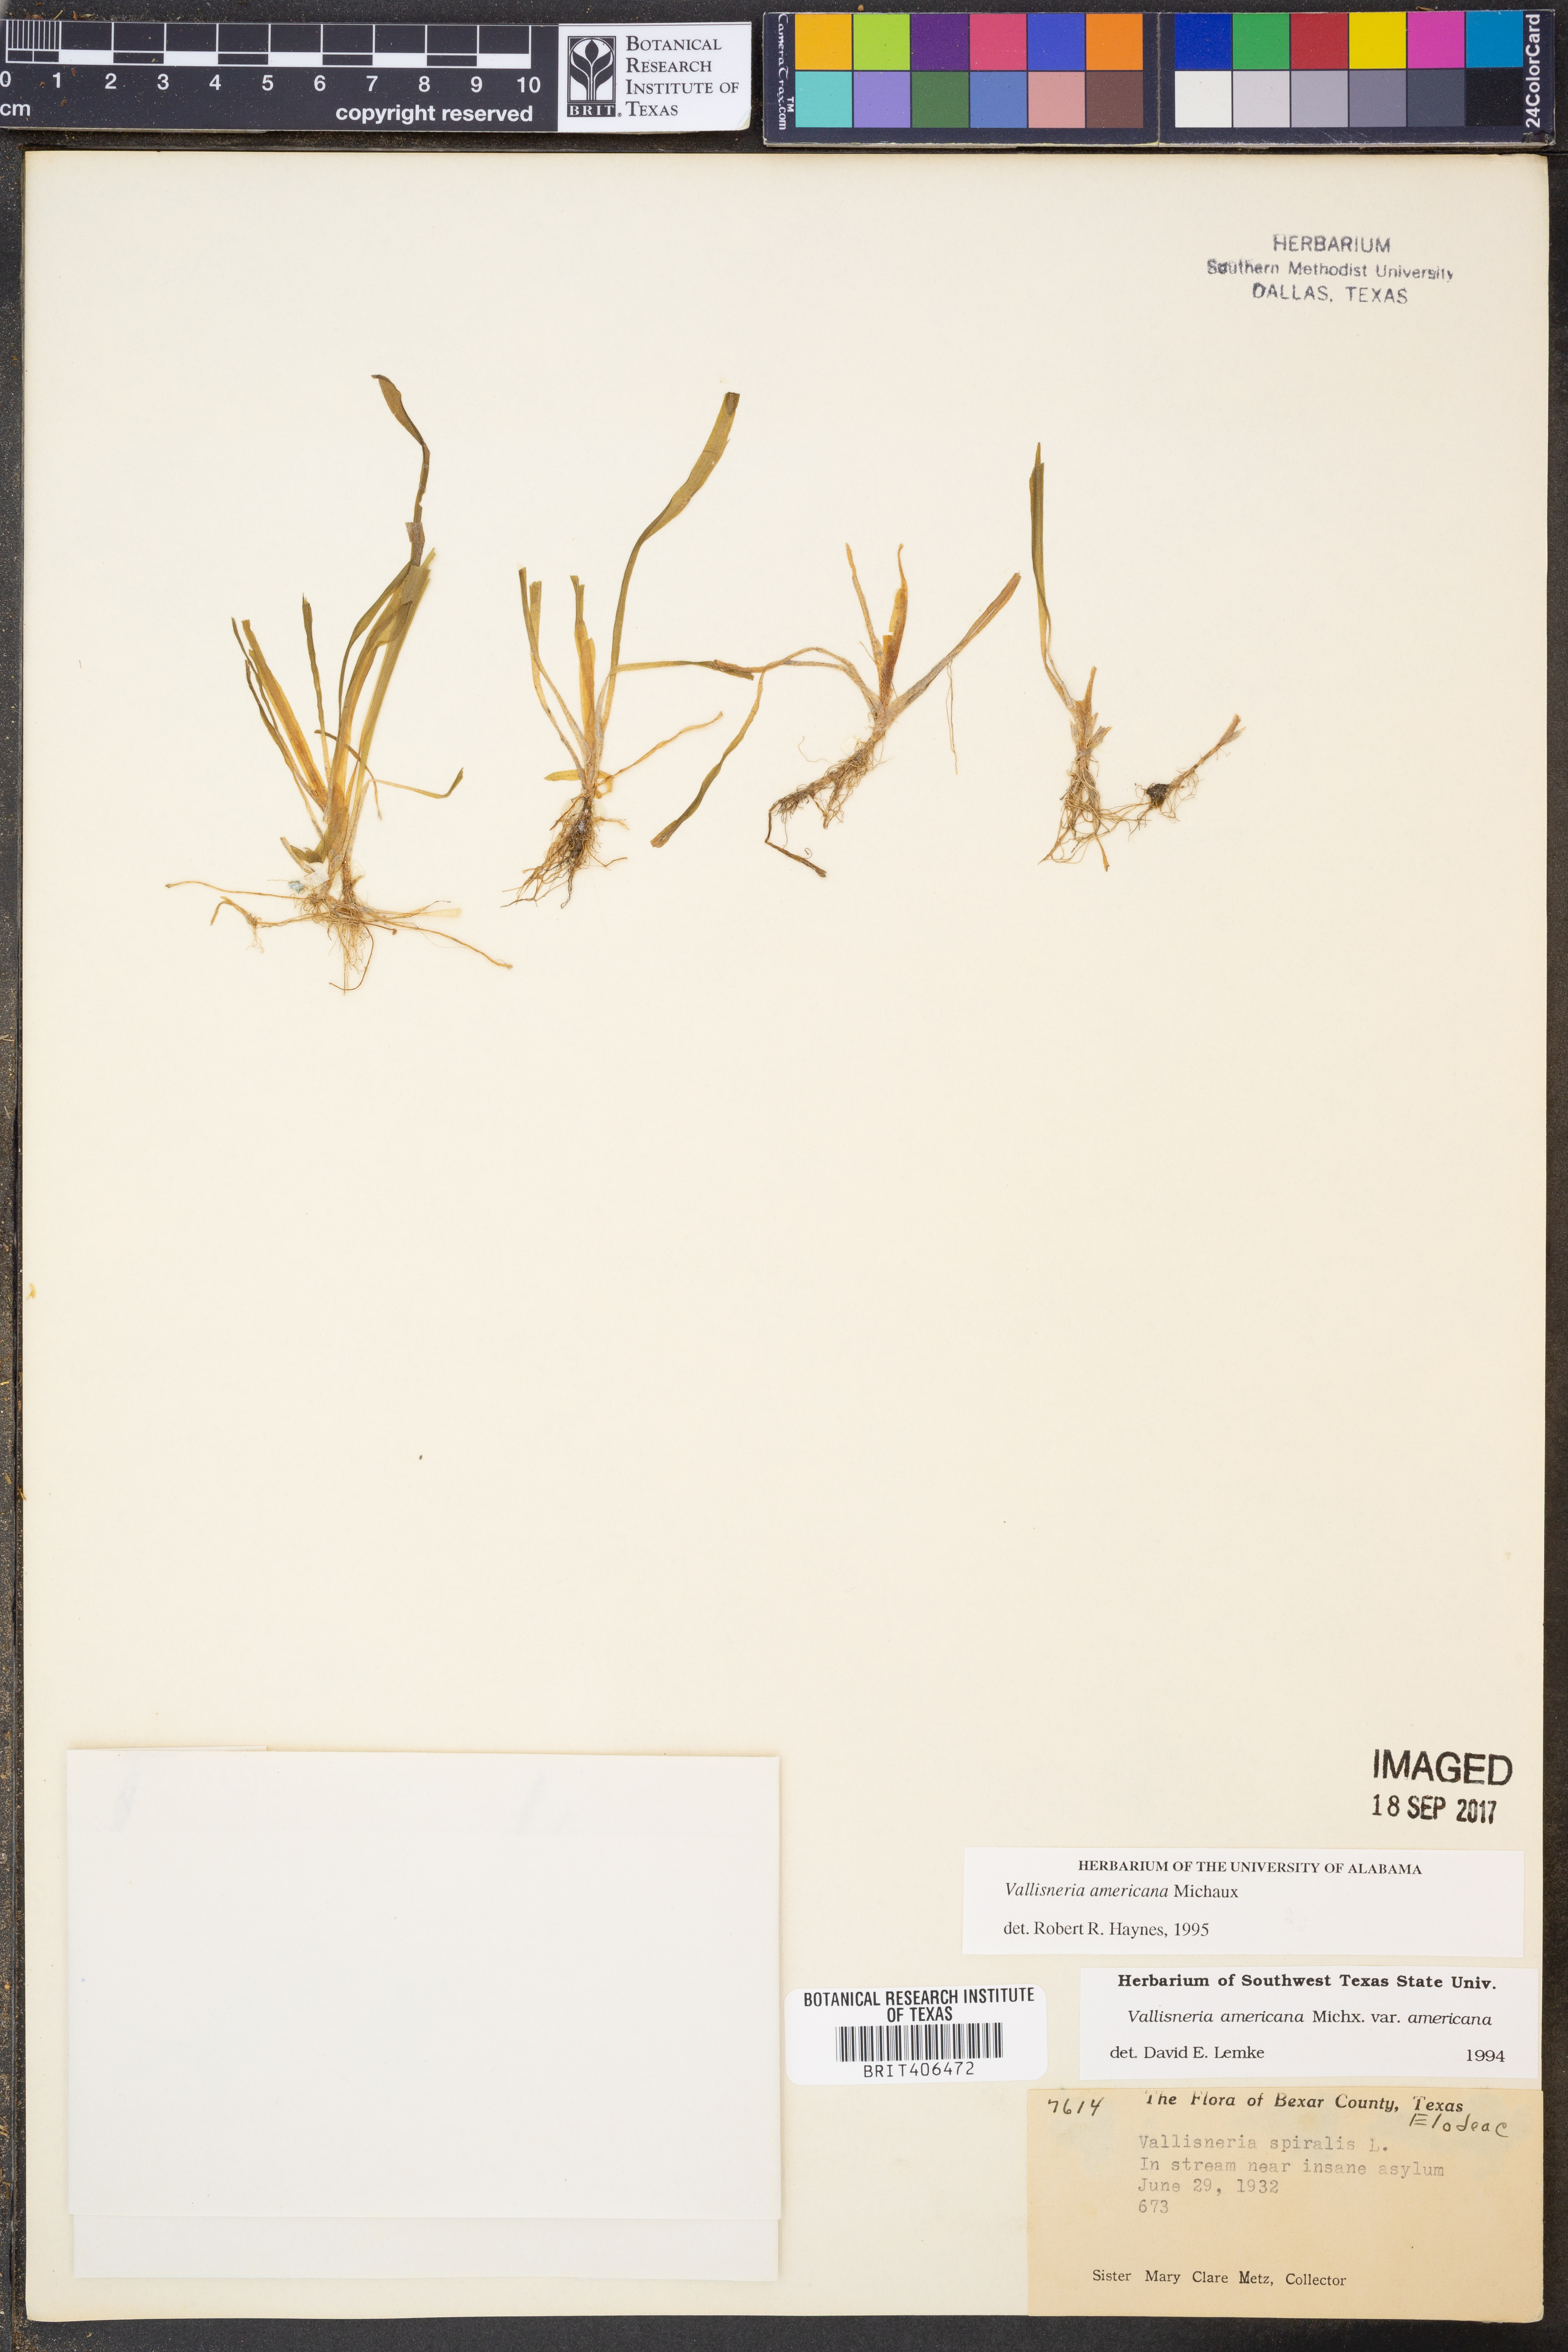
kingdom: Plantae
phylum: Tracheophyta
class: Liliopsida
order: Alismatales
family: Hydrocharitaceae
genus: Vallisneria
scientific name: Vallisneria americana
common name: American eelgrass
